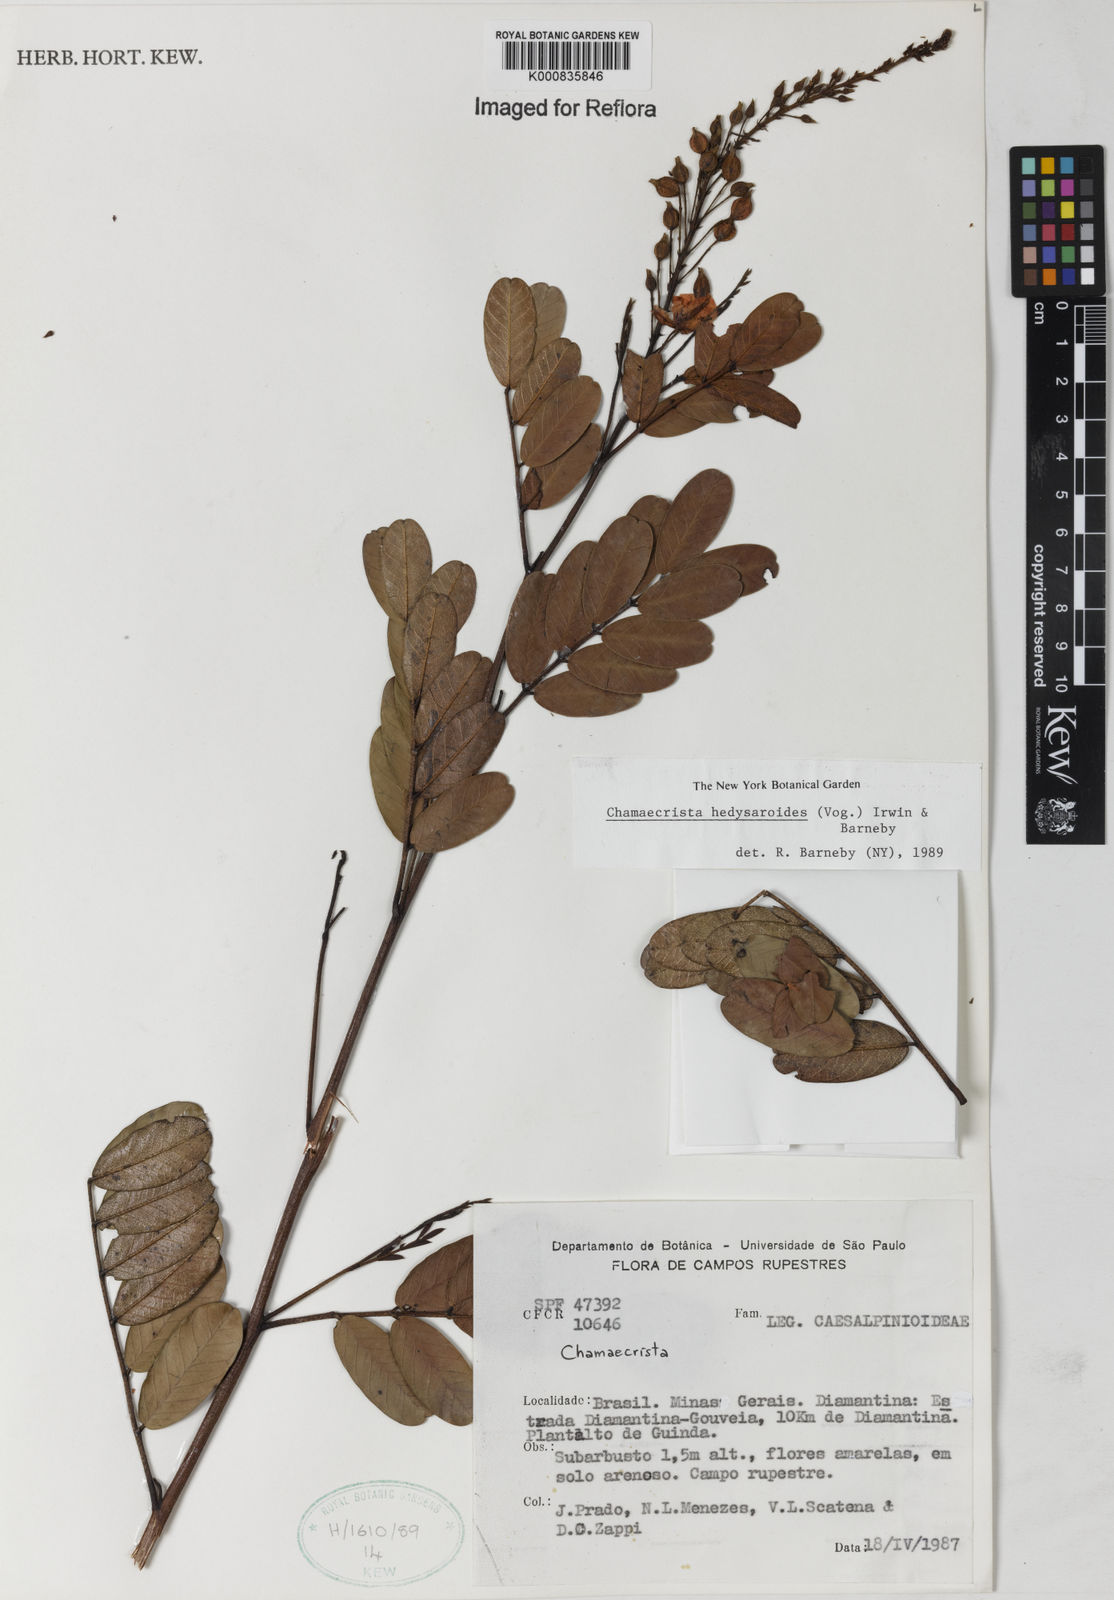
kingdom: Plantae
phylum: Tracheophyta
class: Magnoliopsida
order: Fabales
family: Fabaceae
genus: Chamaecrista
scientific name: Chamaecrista hedysaroides
